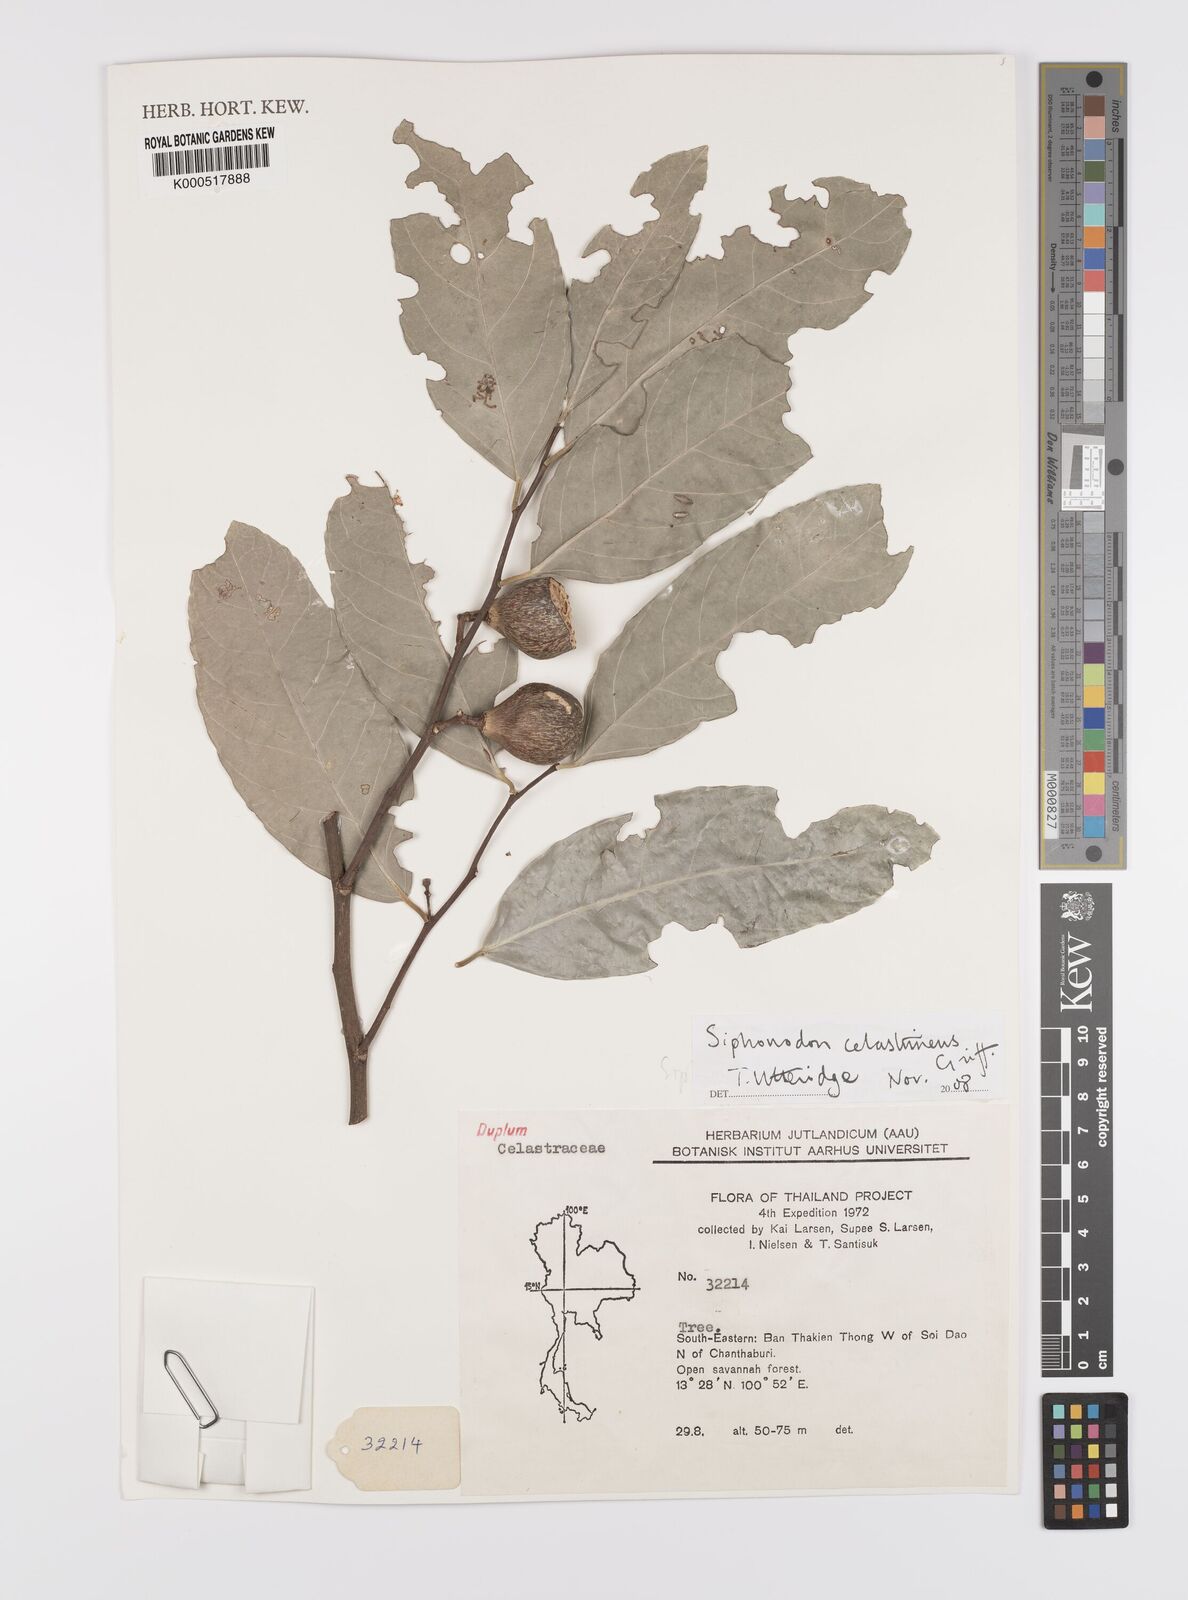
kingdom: Plantae
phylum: Tracheophyta
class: Magnoliopsida
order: Celastrales
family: Celastraceae
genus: Siphonodon
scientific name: Siphonodon celastrineus
